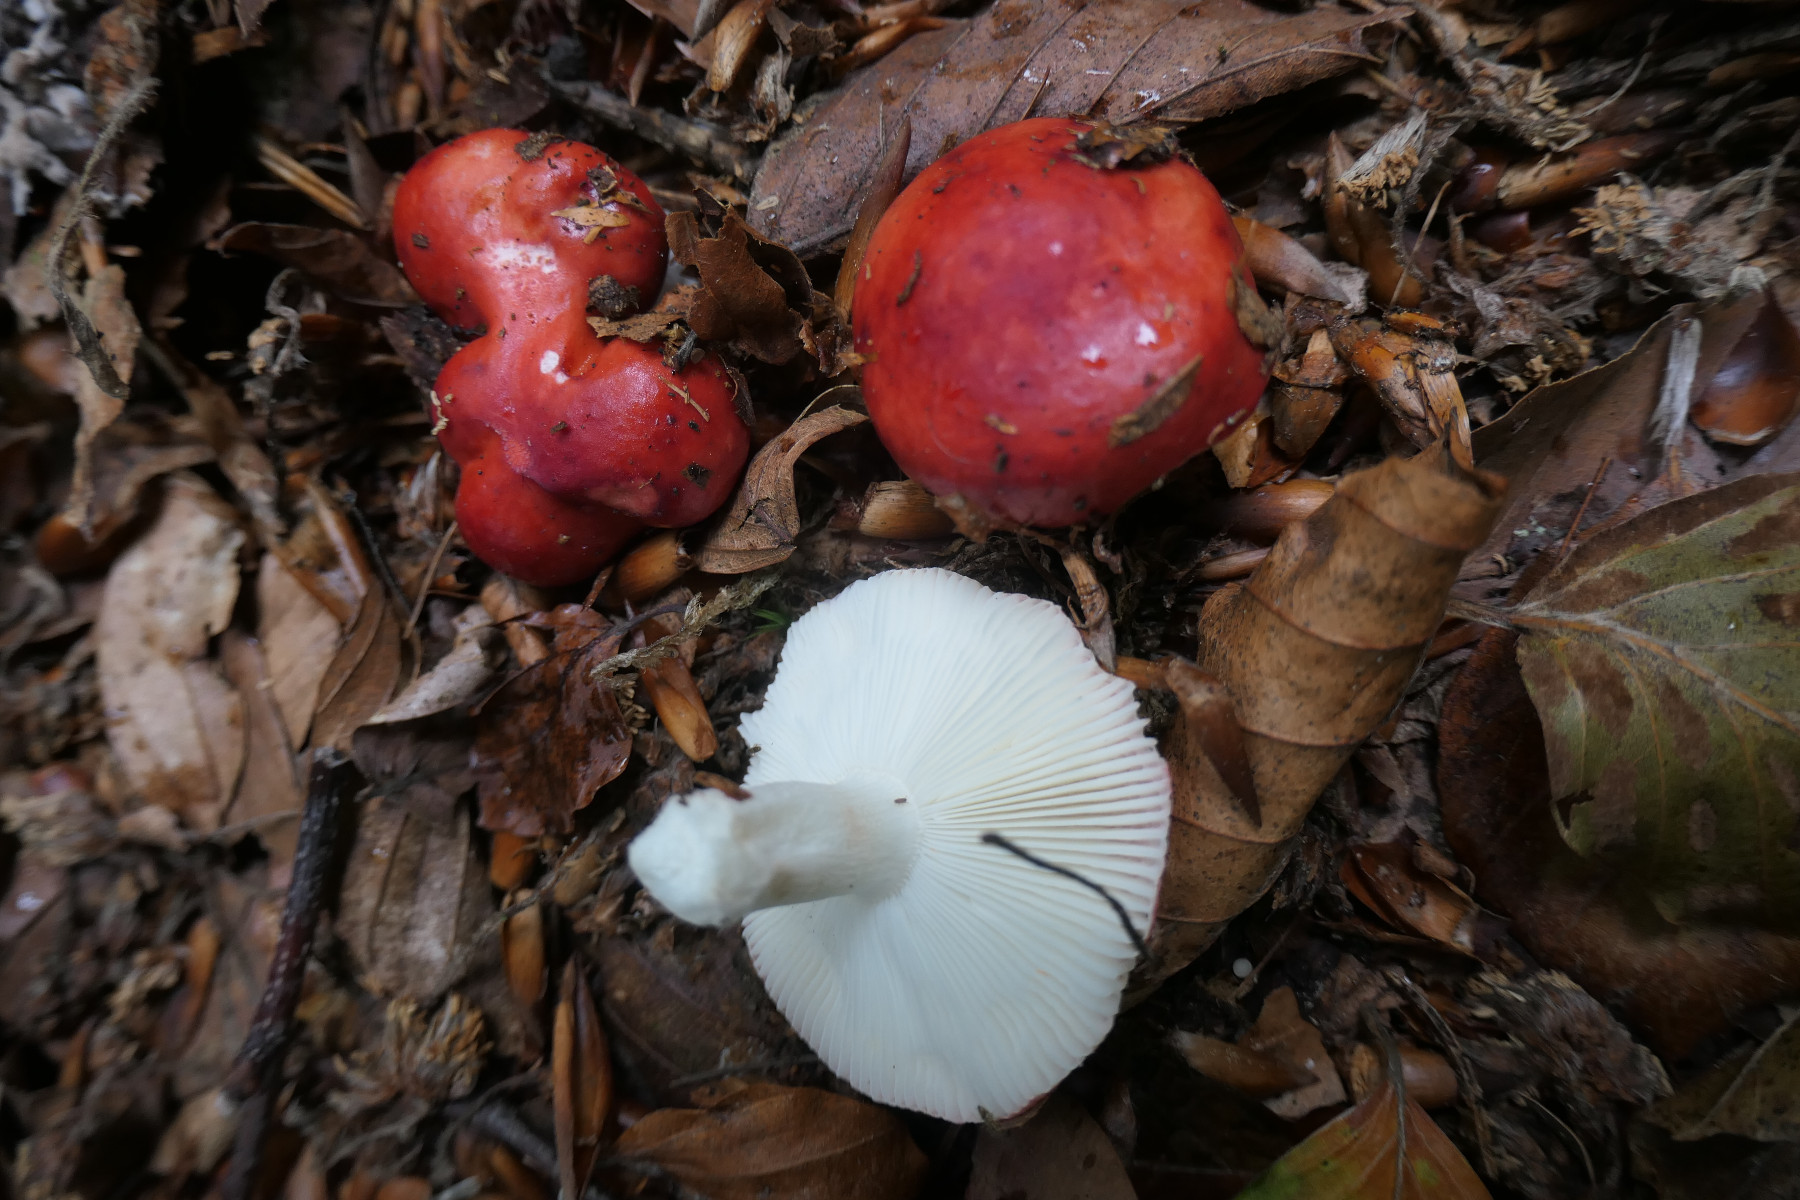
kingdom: Fungi
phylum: Basidiomycota
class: Agaricomycetes
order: Russulales
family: Russulaceae
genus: Russula
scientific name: Russula nobilis
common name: lille gift-skørhat
